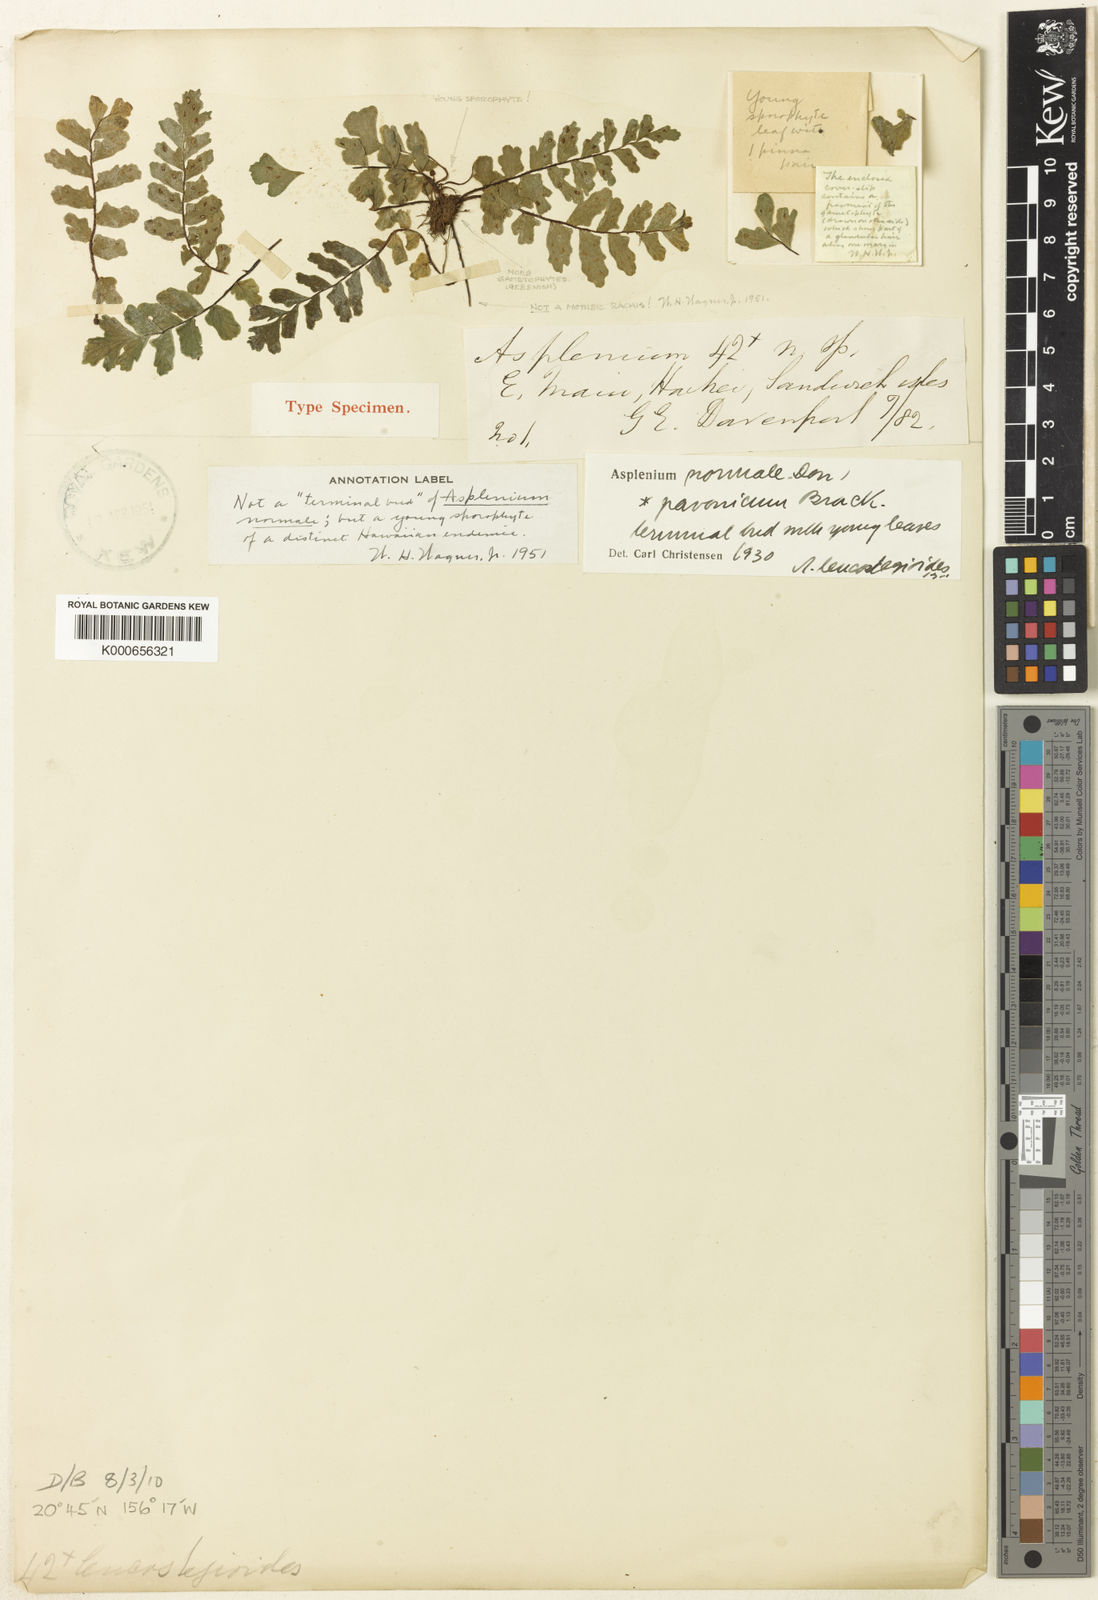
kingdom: Plantae
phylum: Tracheophyta
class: Polypodiopsida
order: Polypodiales
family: Aspleniaceae
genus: Asplenium
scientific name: Asplenium normale
